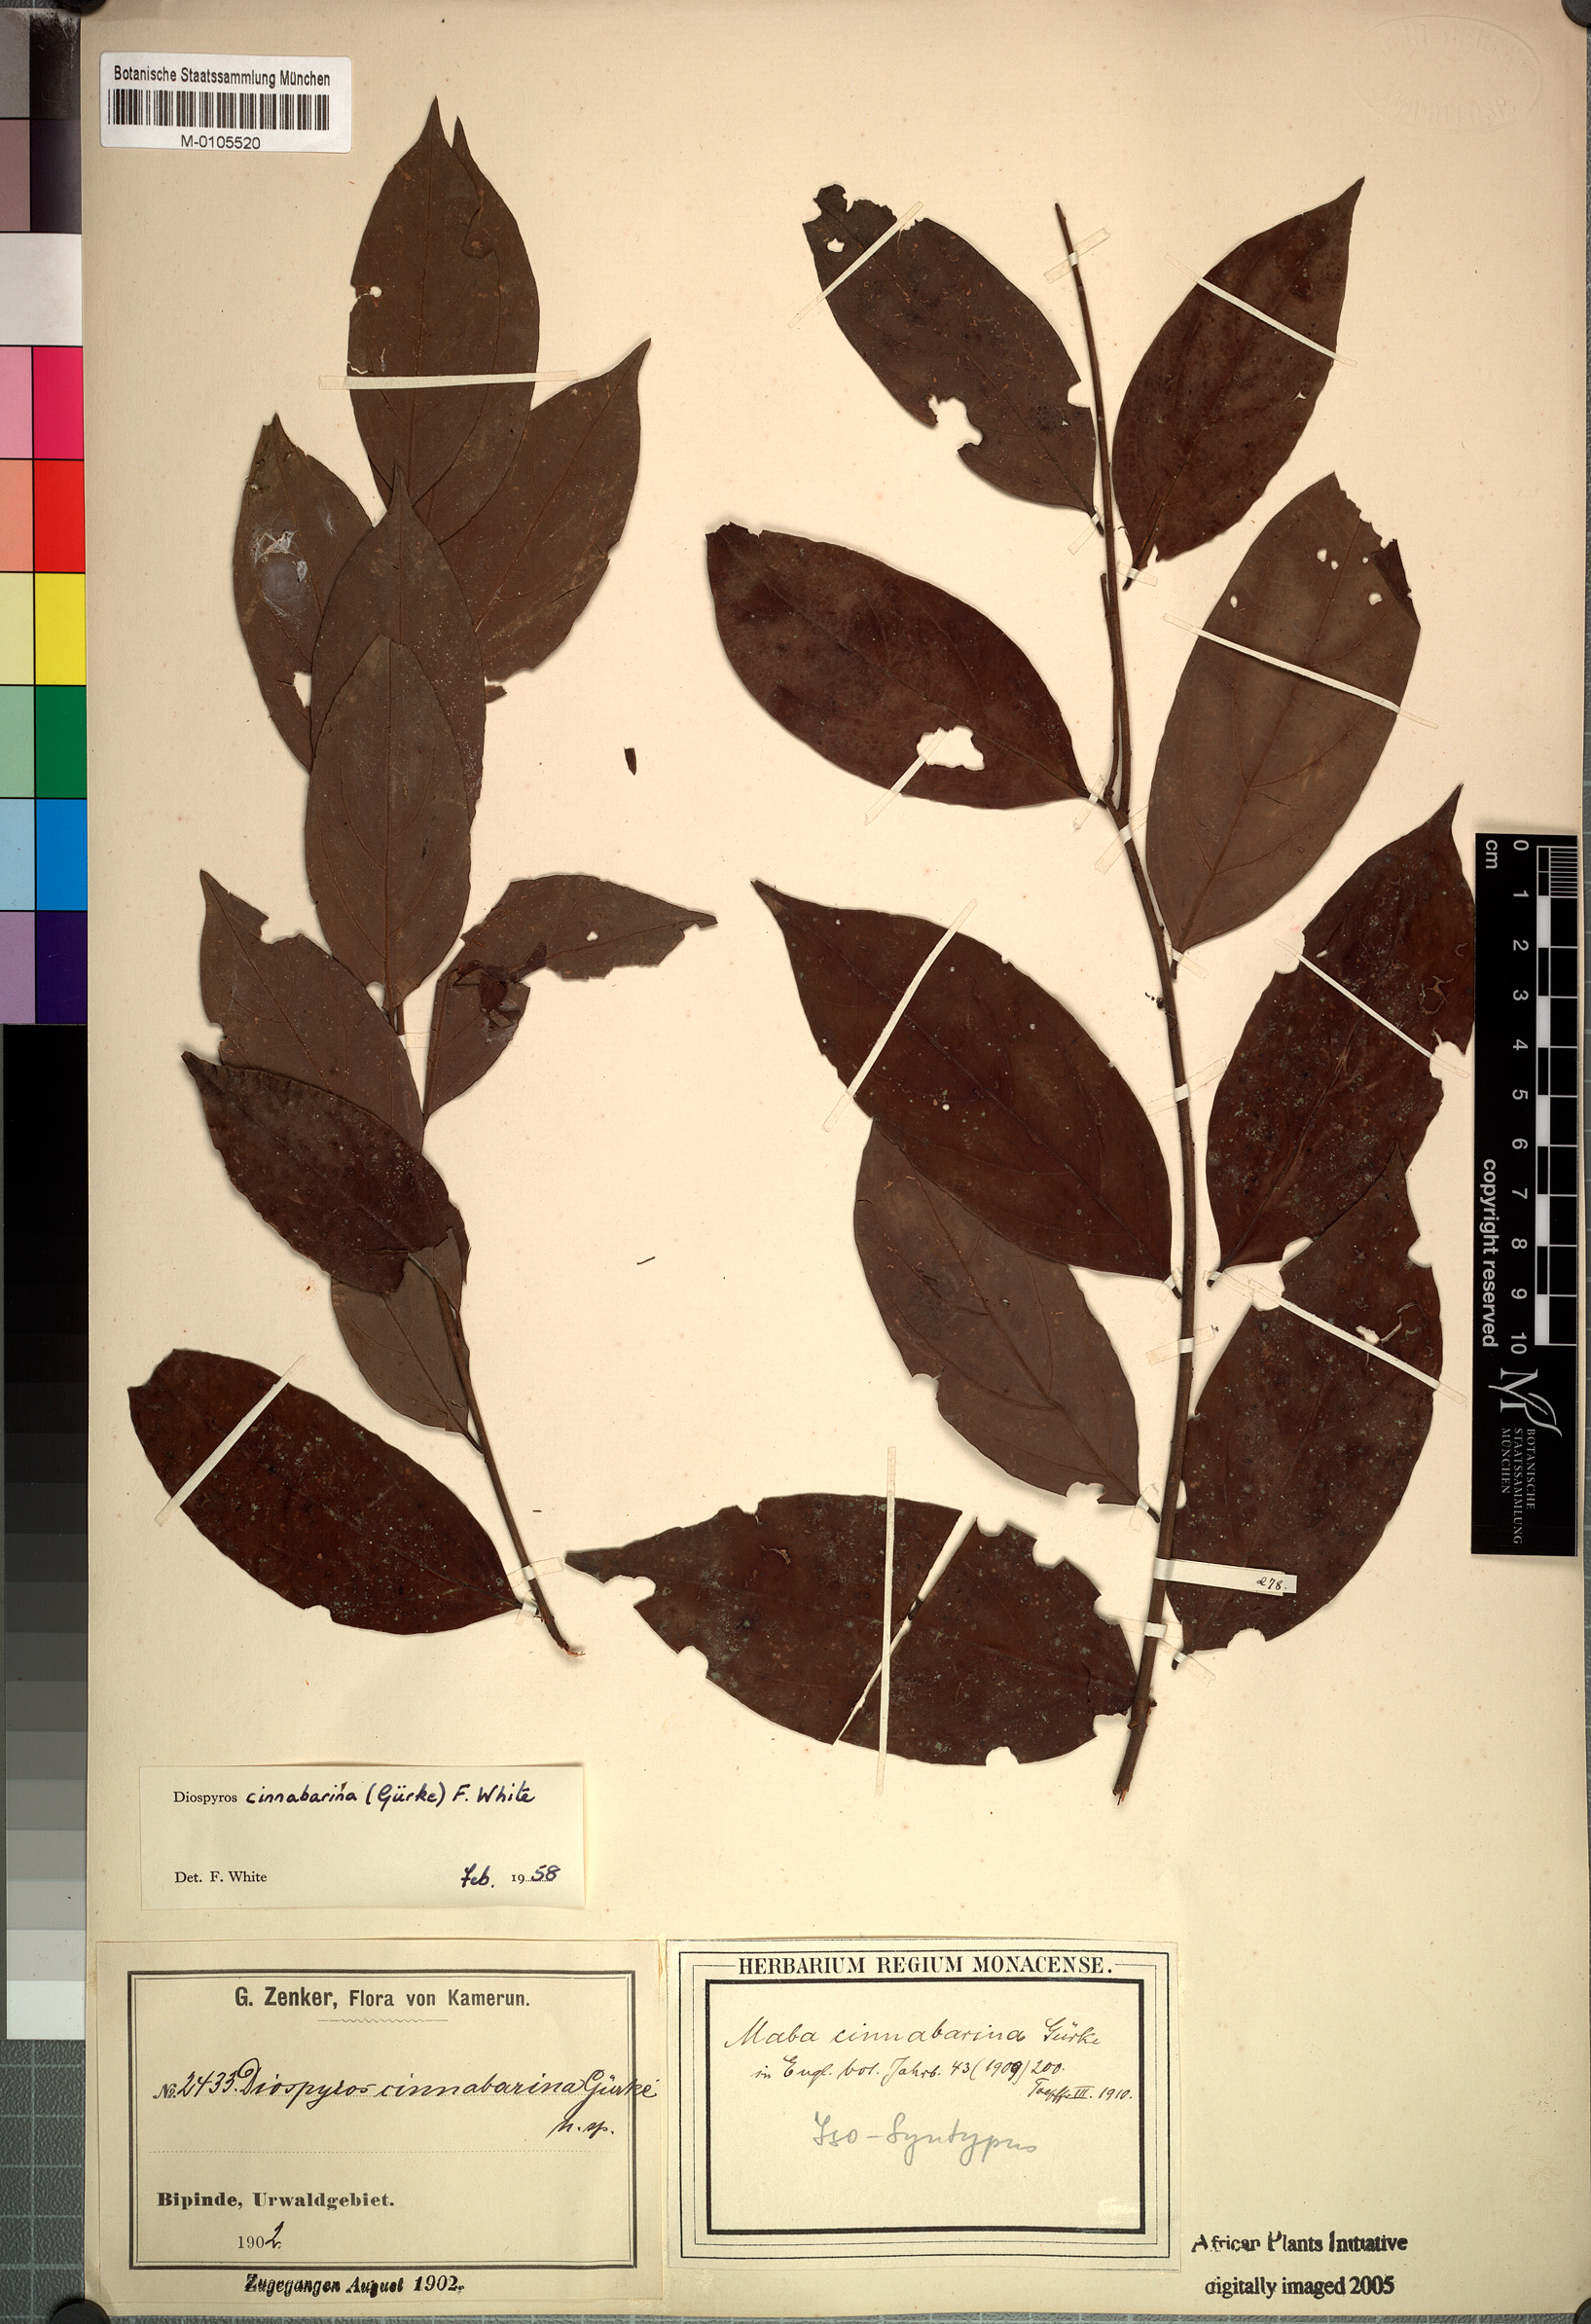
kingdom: Plantae
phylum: Tracheophyta
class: Magnoliopsida
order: Ericales
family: Ebenaceae
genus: Diospyros
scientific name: Diospyros cinnabarina
